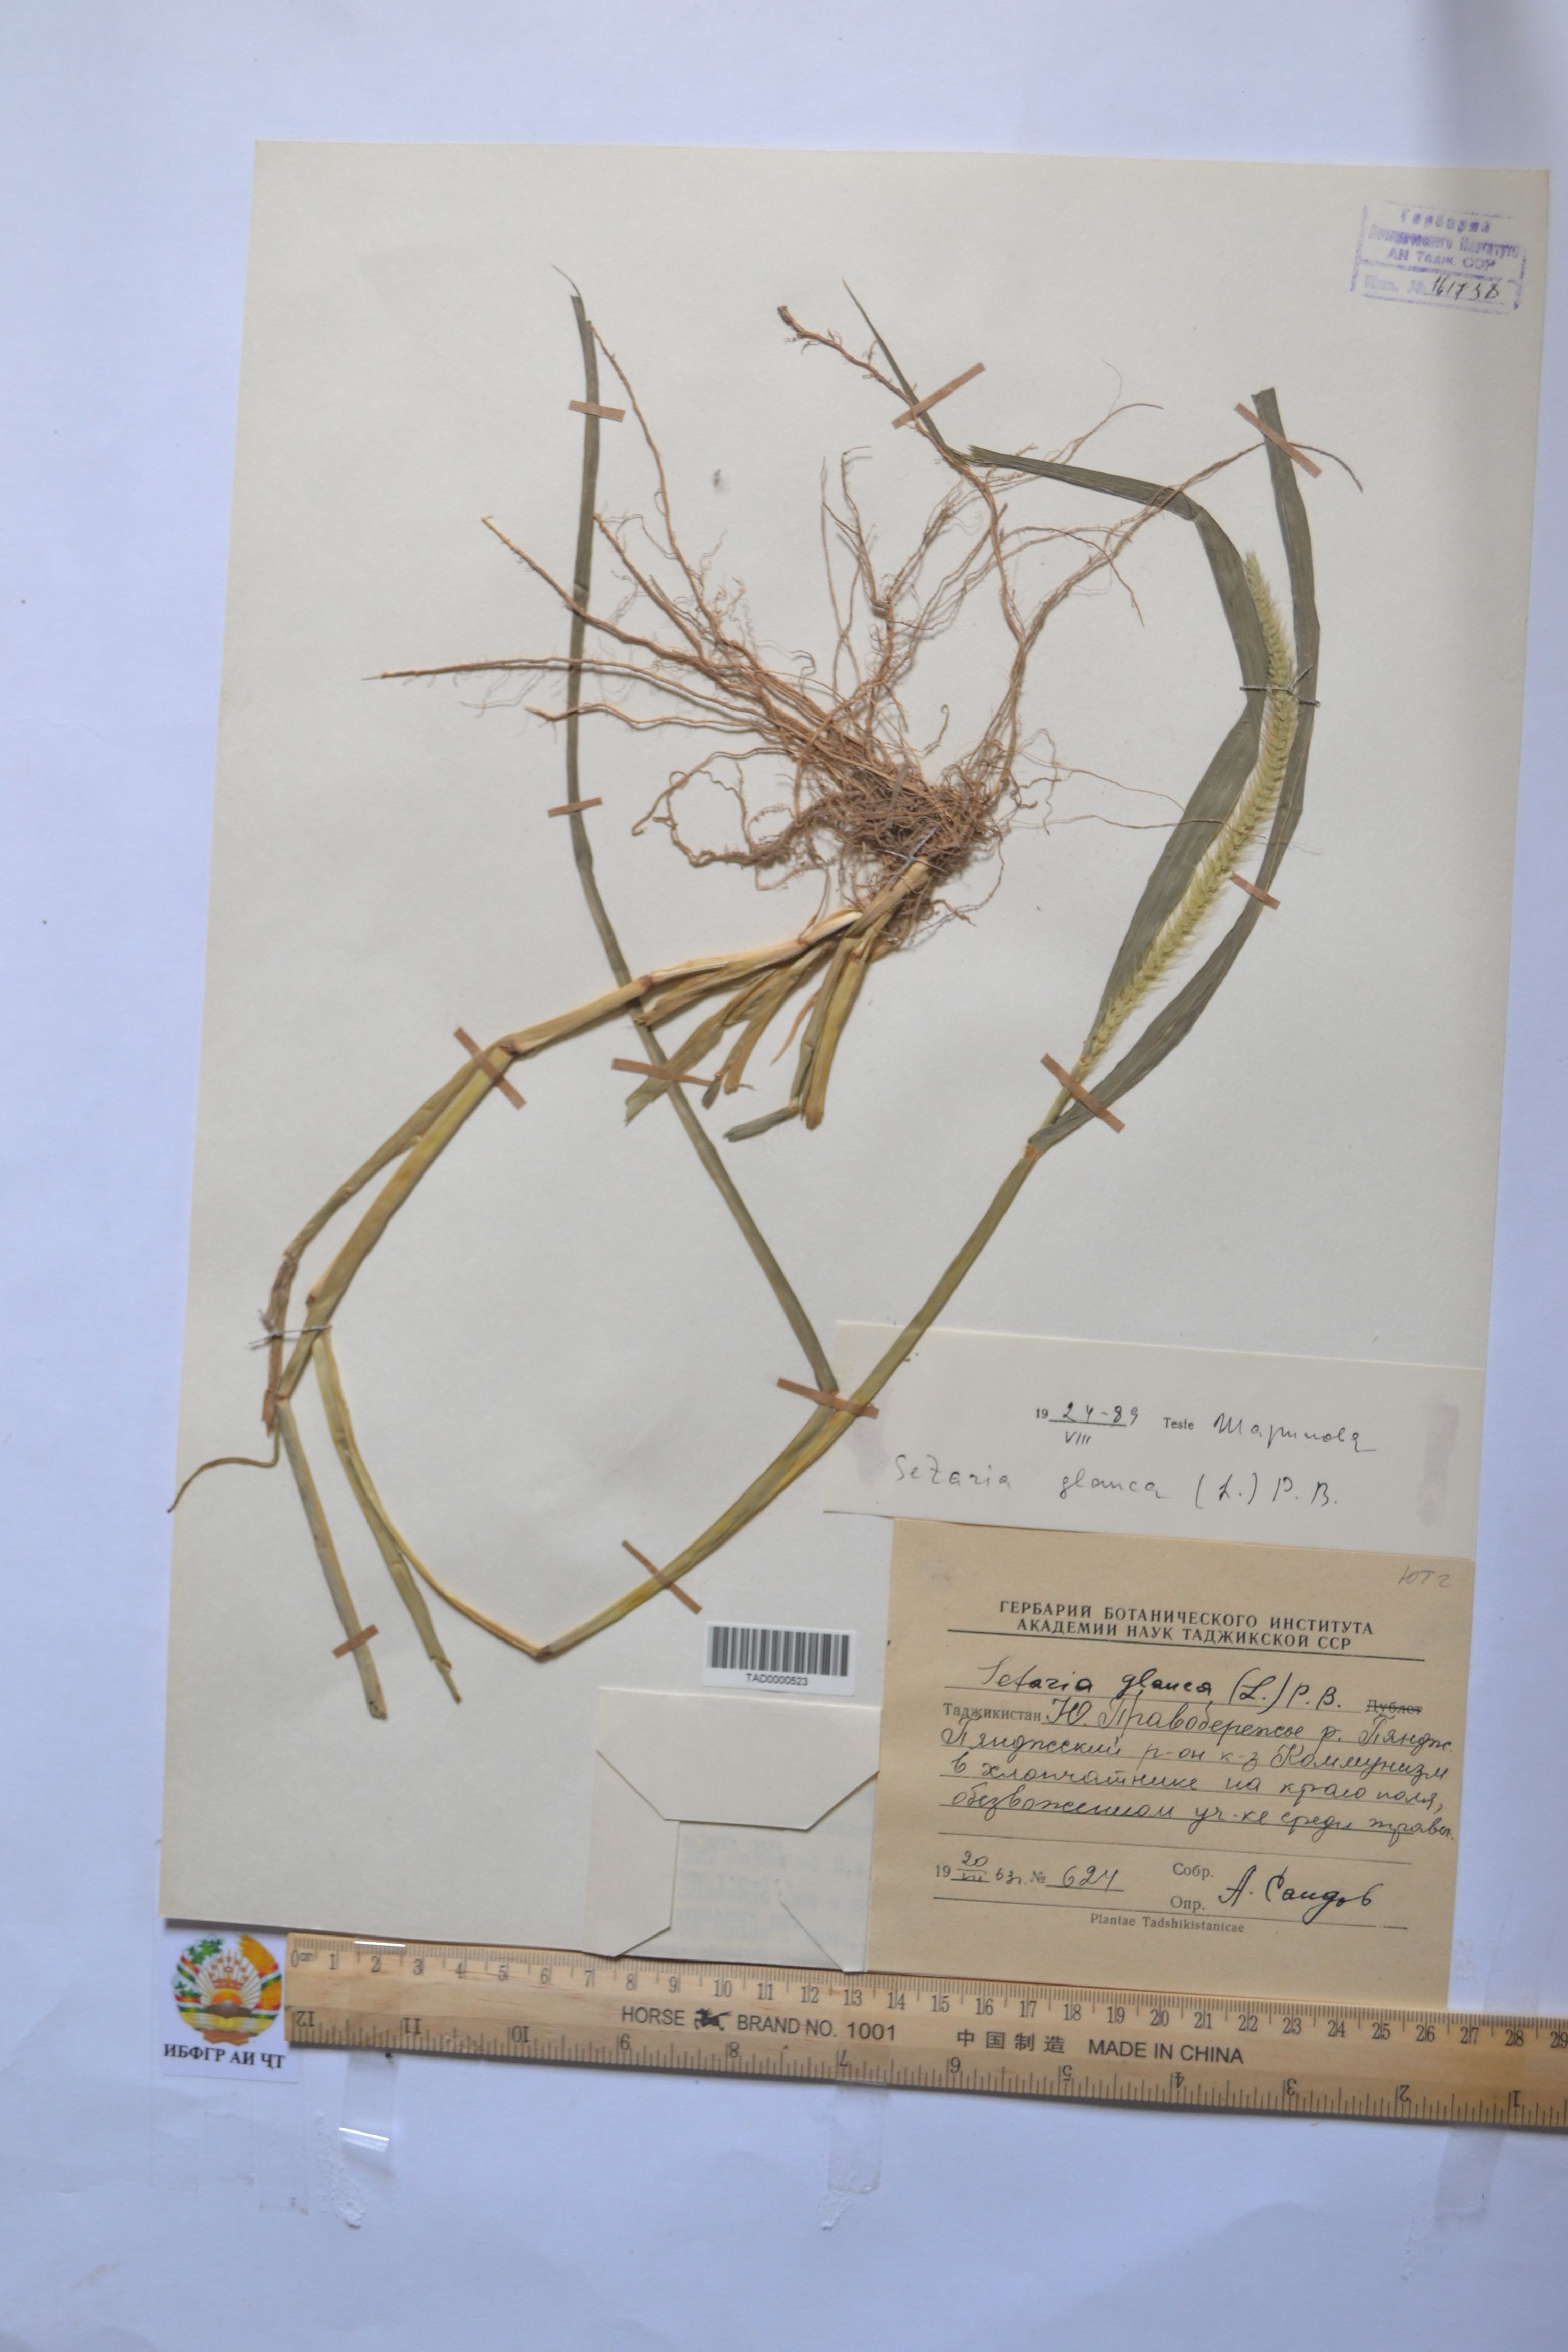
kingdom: Plantae
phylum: Tracheophyta
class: Liliopsida
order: Poales
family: Poaceae
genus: Cenchrus
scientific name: Cenchrus americanus
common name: Pearl millet
